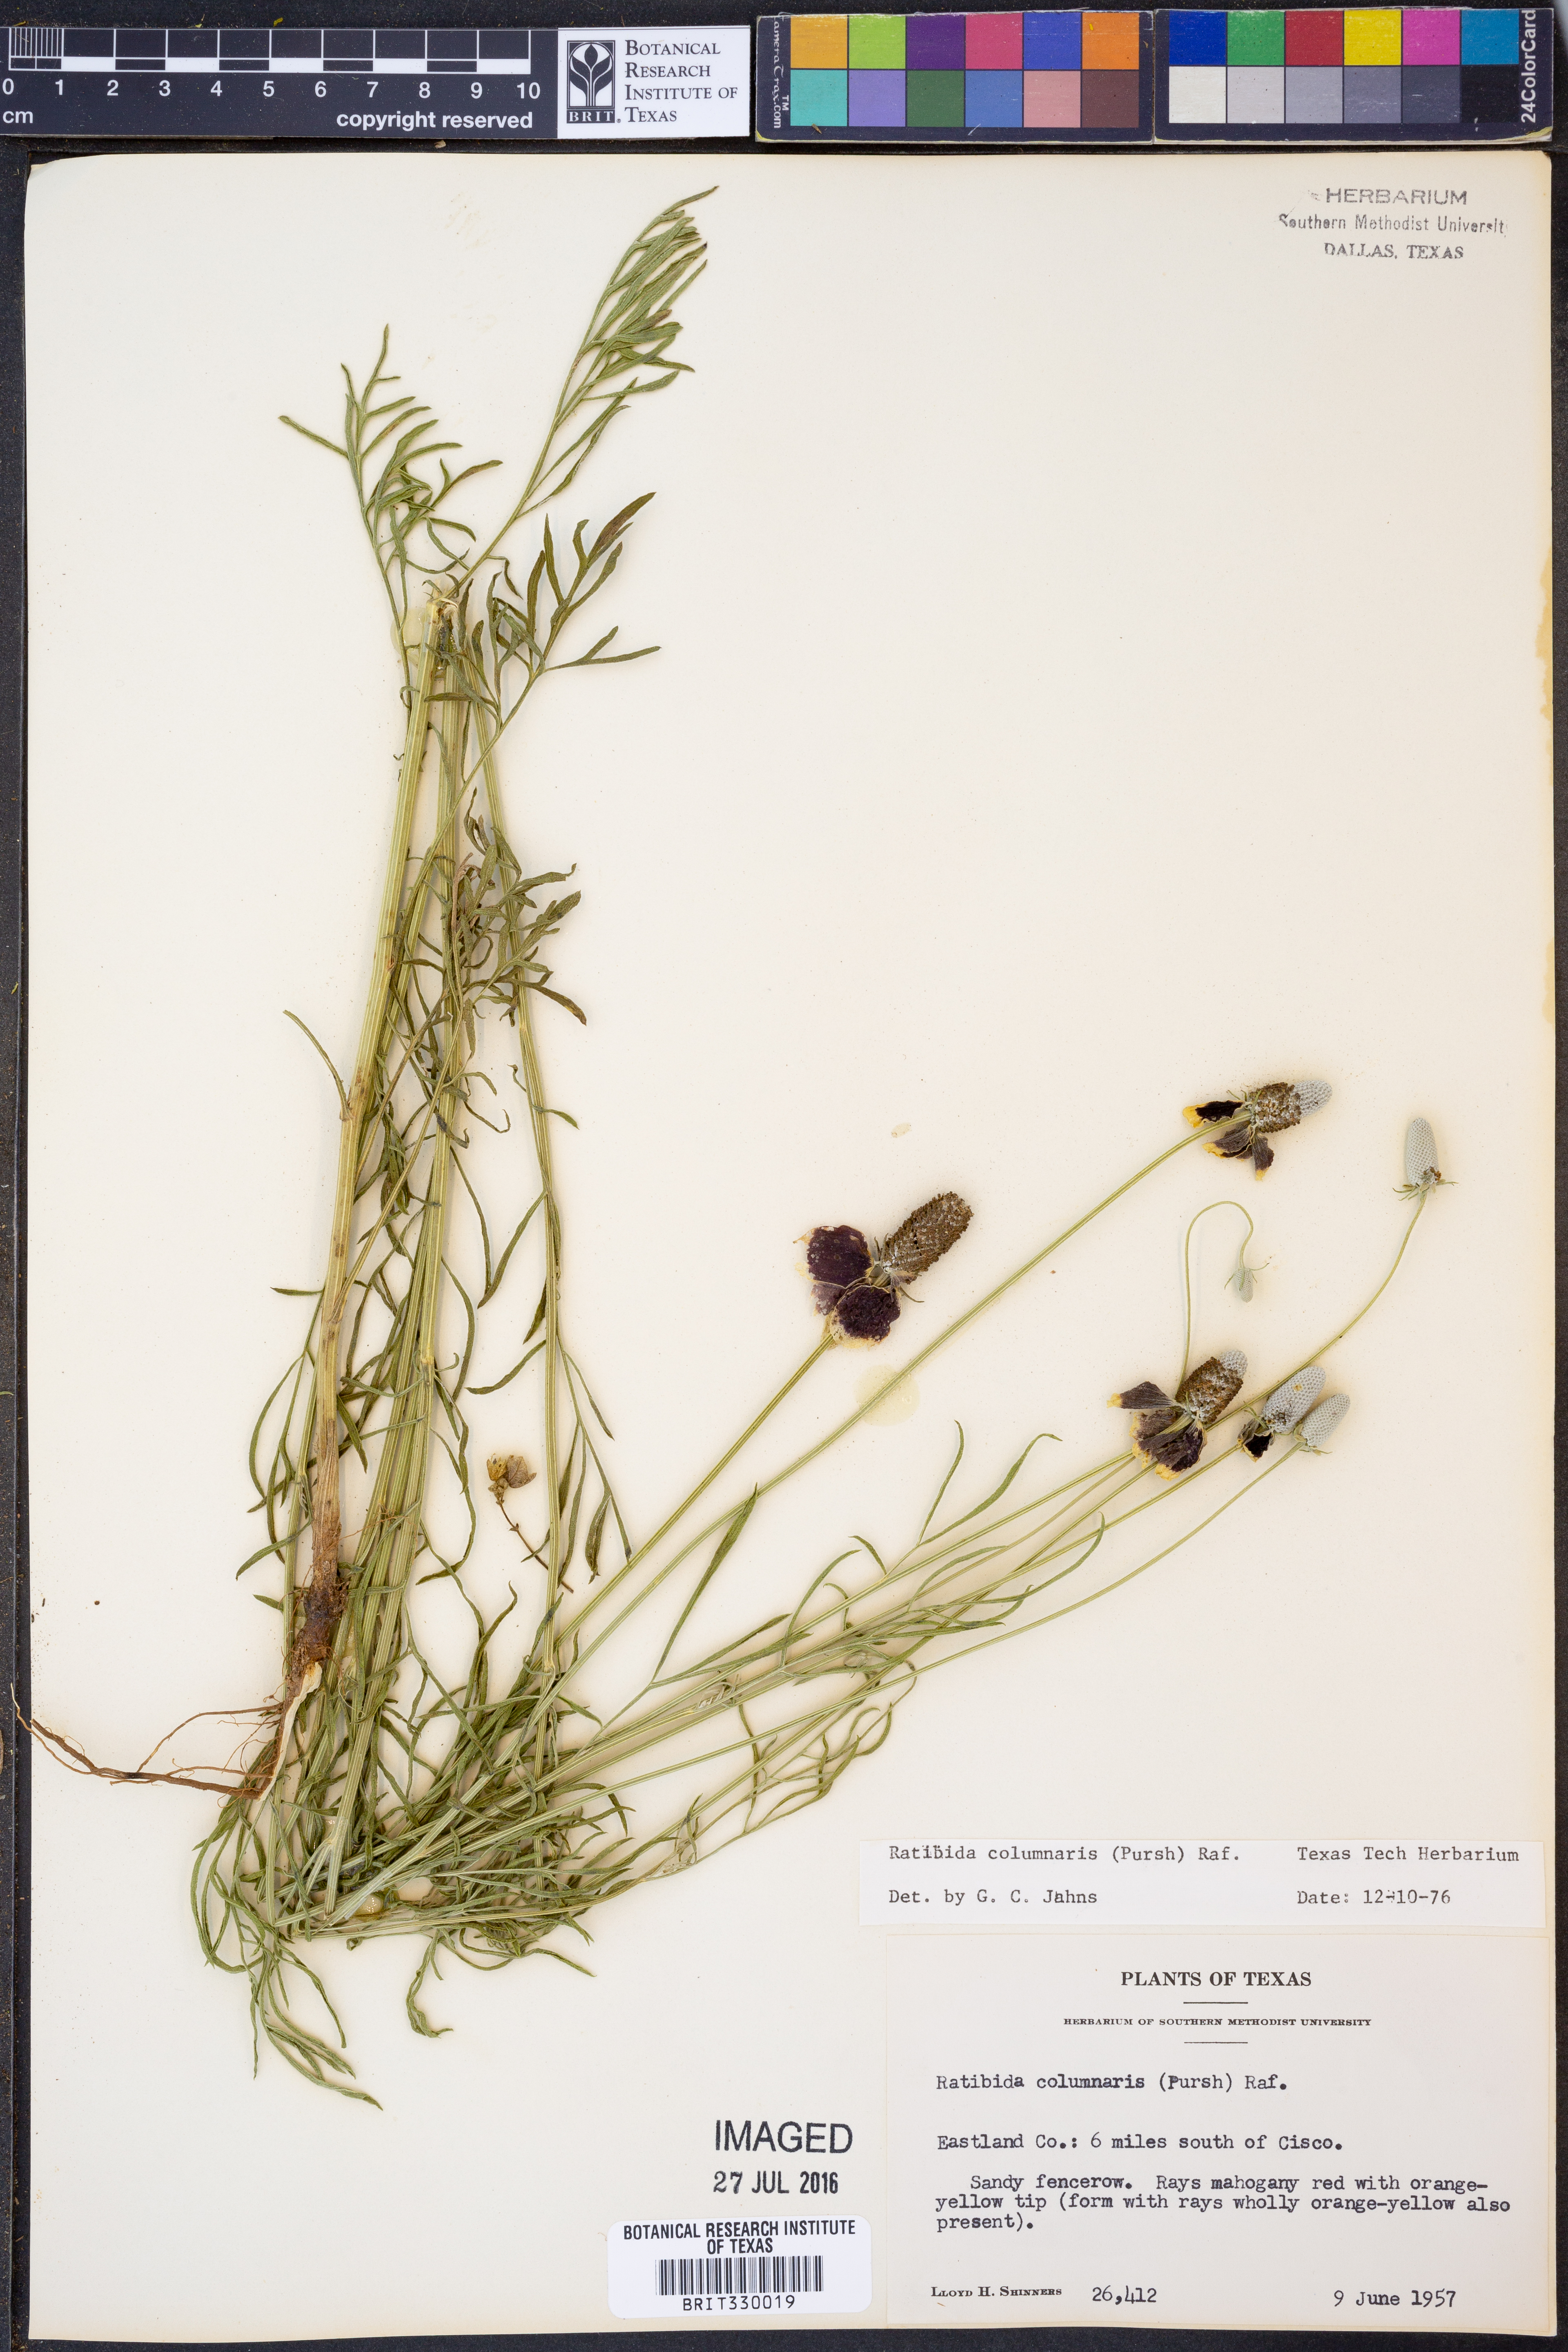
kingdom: Plantae
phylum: Tracheophyta
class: Magnoliopsida
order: Asterales
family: Asteraceae
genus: Ratibida
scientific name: Ratibida columnifera
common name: Prairie coneflower
